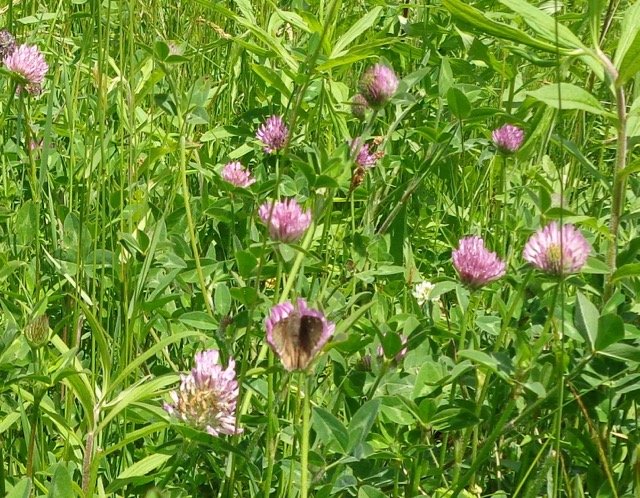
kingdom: Animalia
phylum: Arthropoda
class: Insecta
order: Lepidoptera
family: Hesperiidae
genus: Autochton
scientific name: Autochton
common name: Northern Cloudywing
